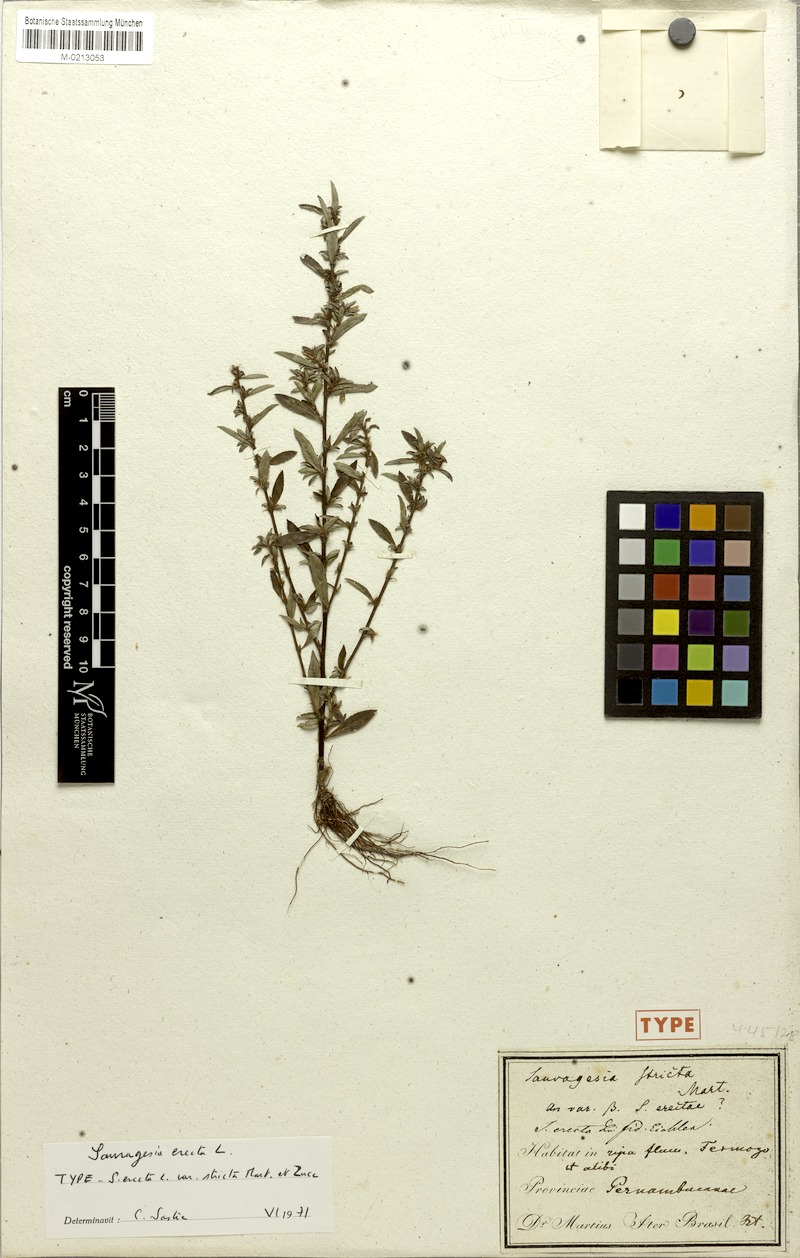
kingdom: Plantae
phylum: Tracheophyta
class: Magnoliopsida
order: Malpighiales
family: Ochnaceae
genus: Sauvagesia
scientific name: Sauvagesia erecta
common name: Creole tea
